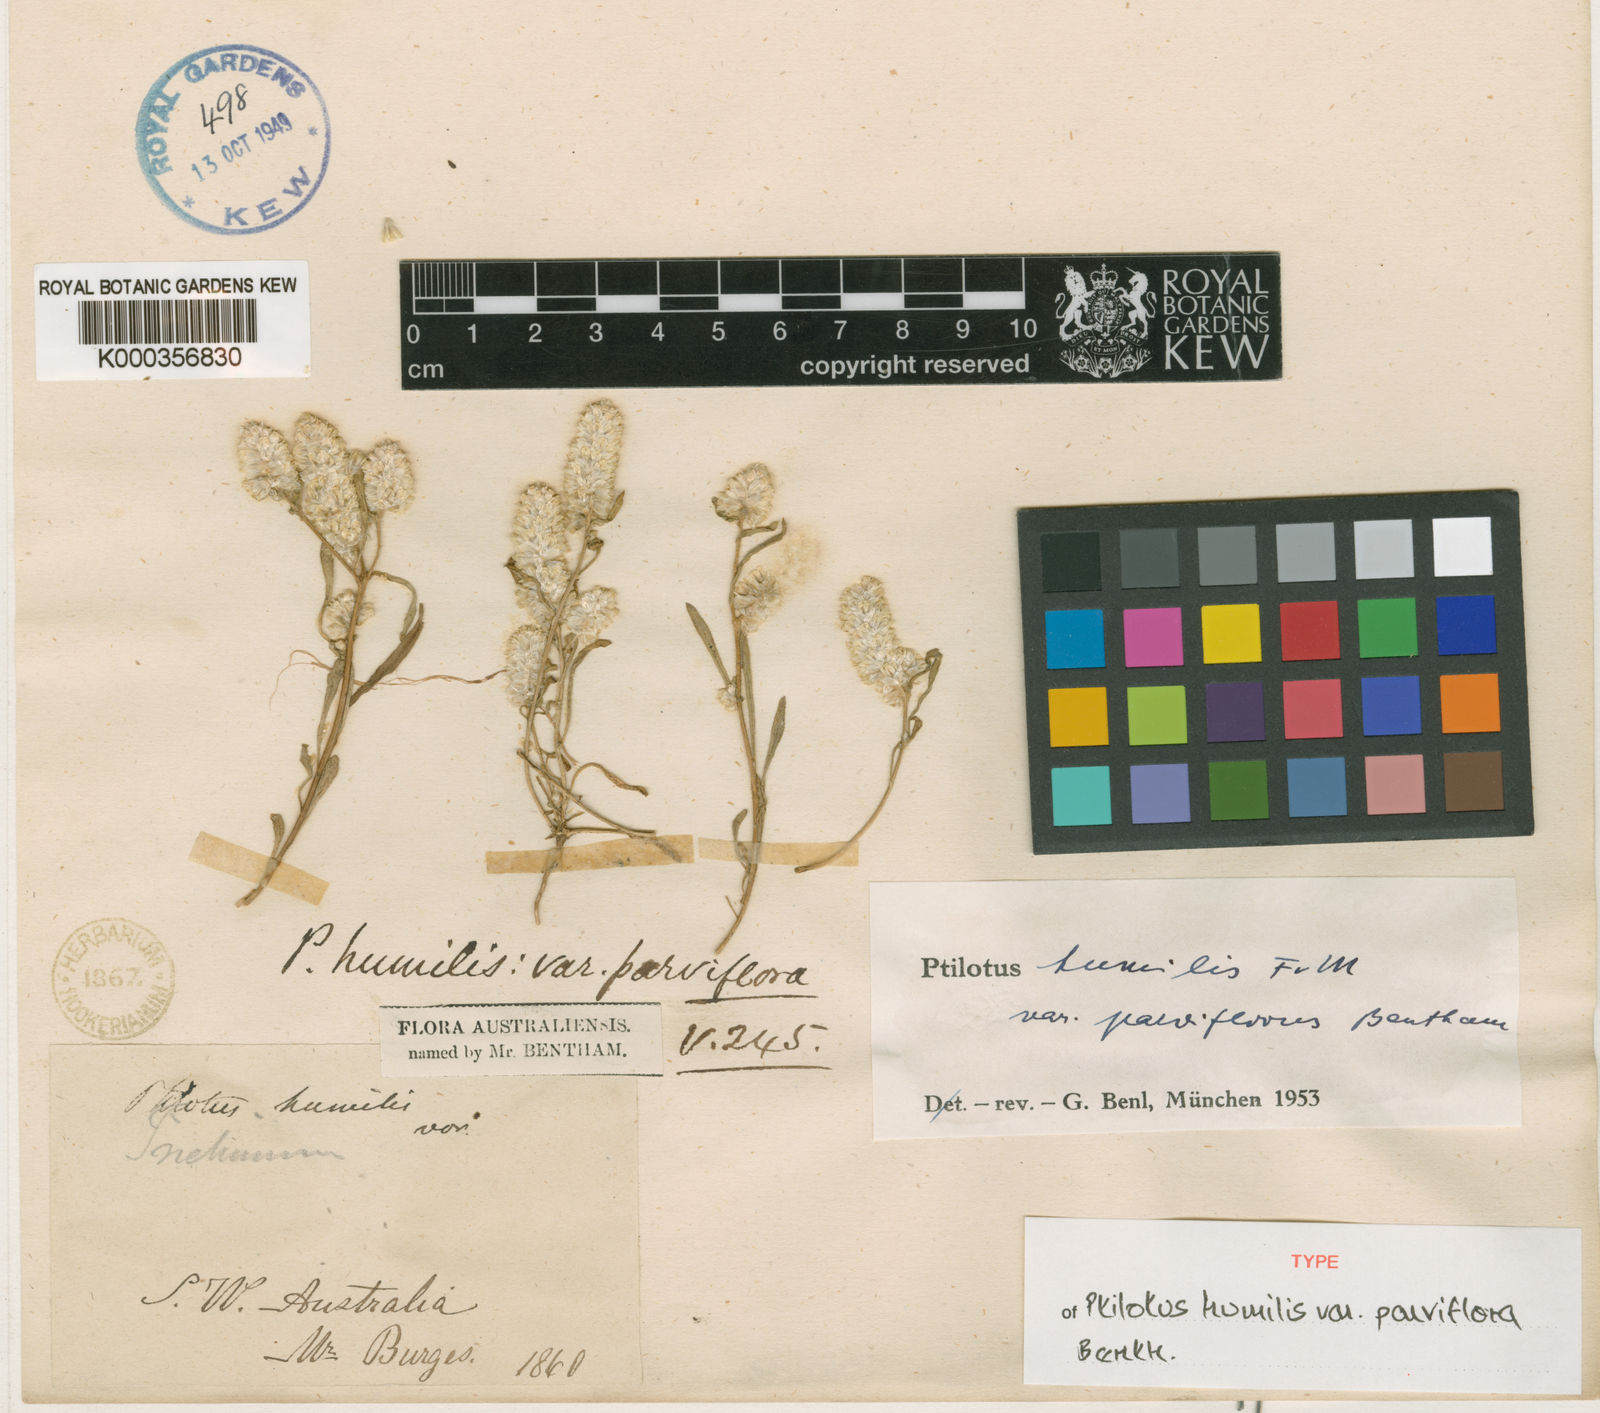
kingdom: Plantae
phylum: Tracheophyta
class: Magnoliopsida
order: Caryophyllales
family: Amaranthaceae
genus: Ptilotus
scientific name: Ptilotus humilis
